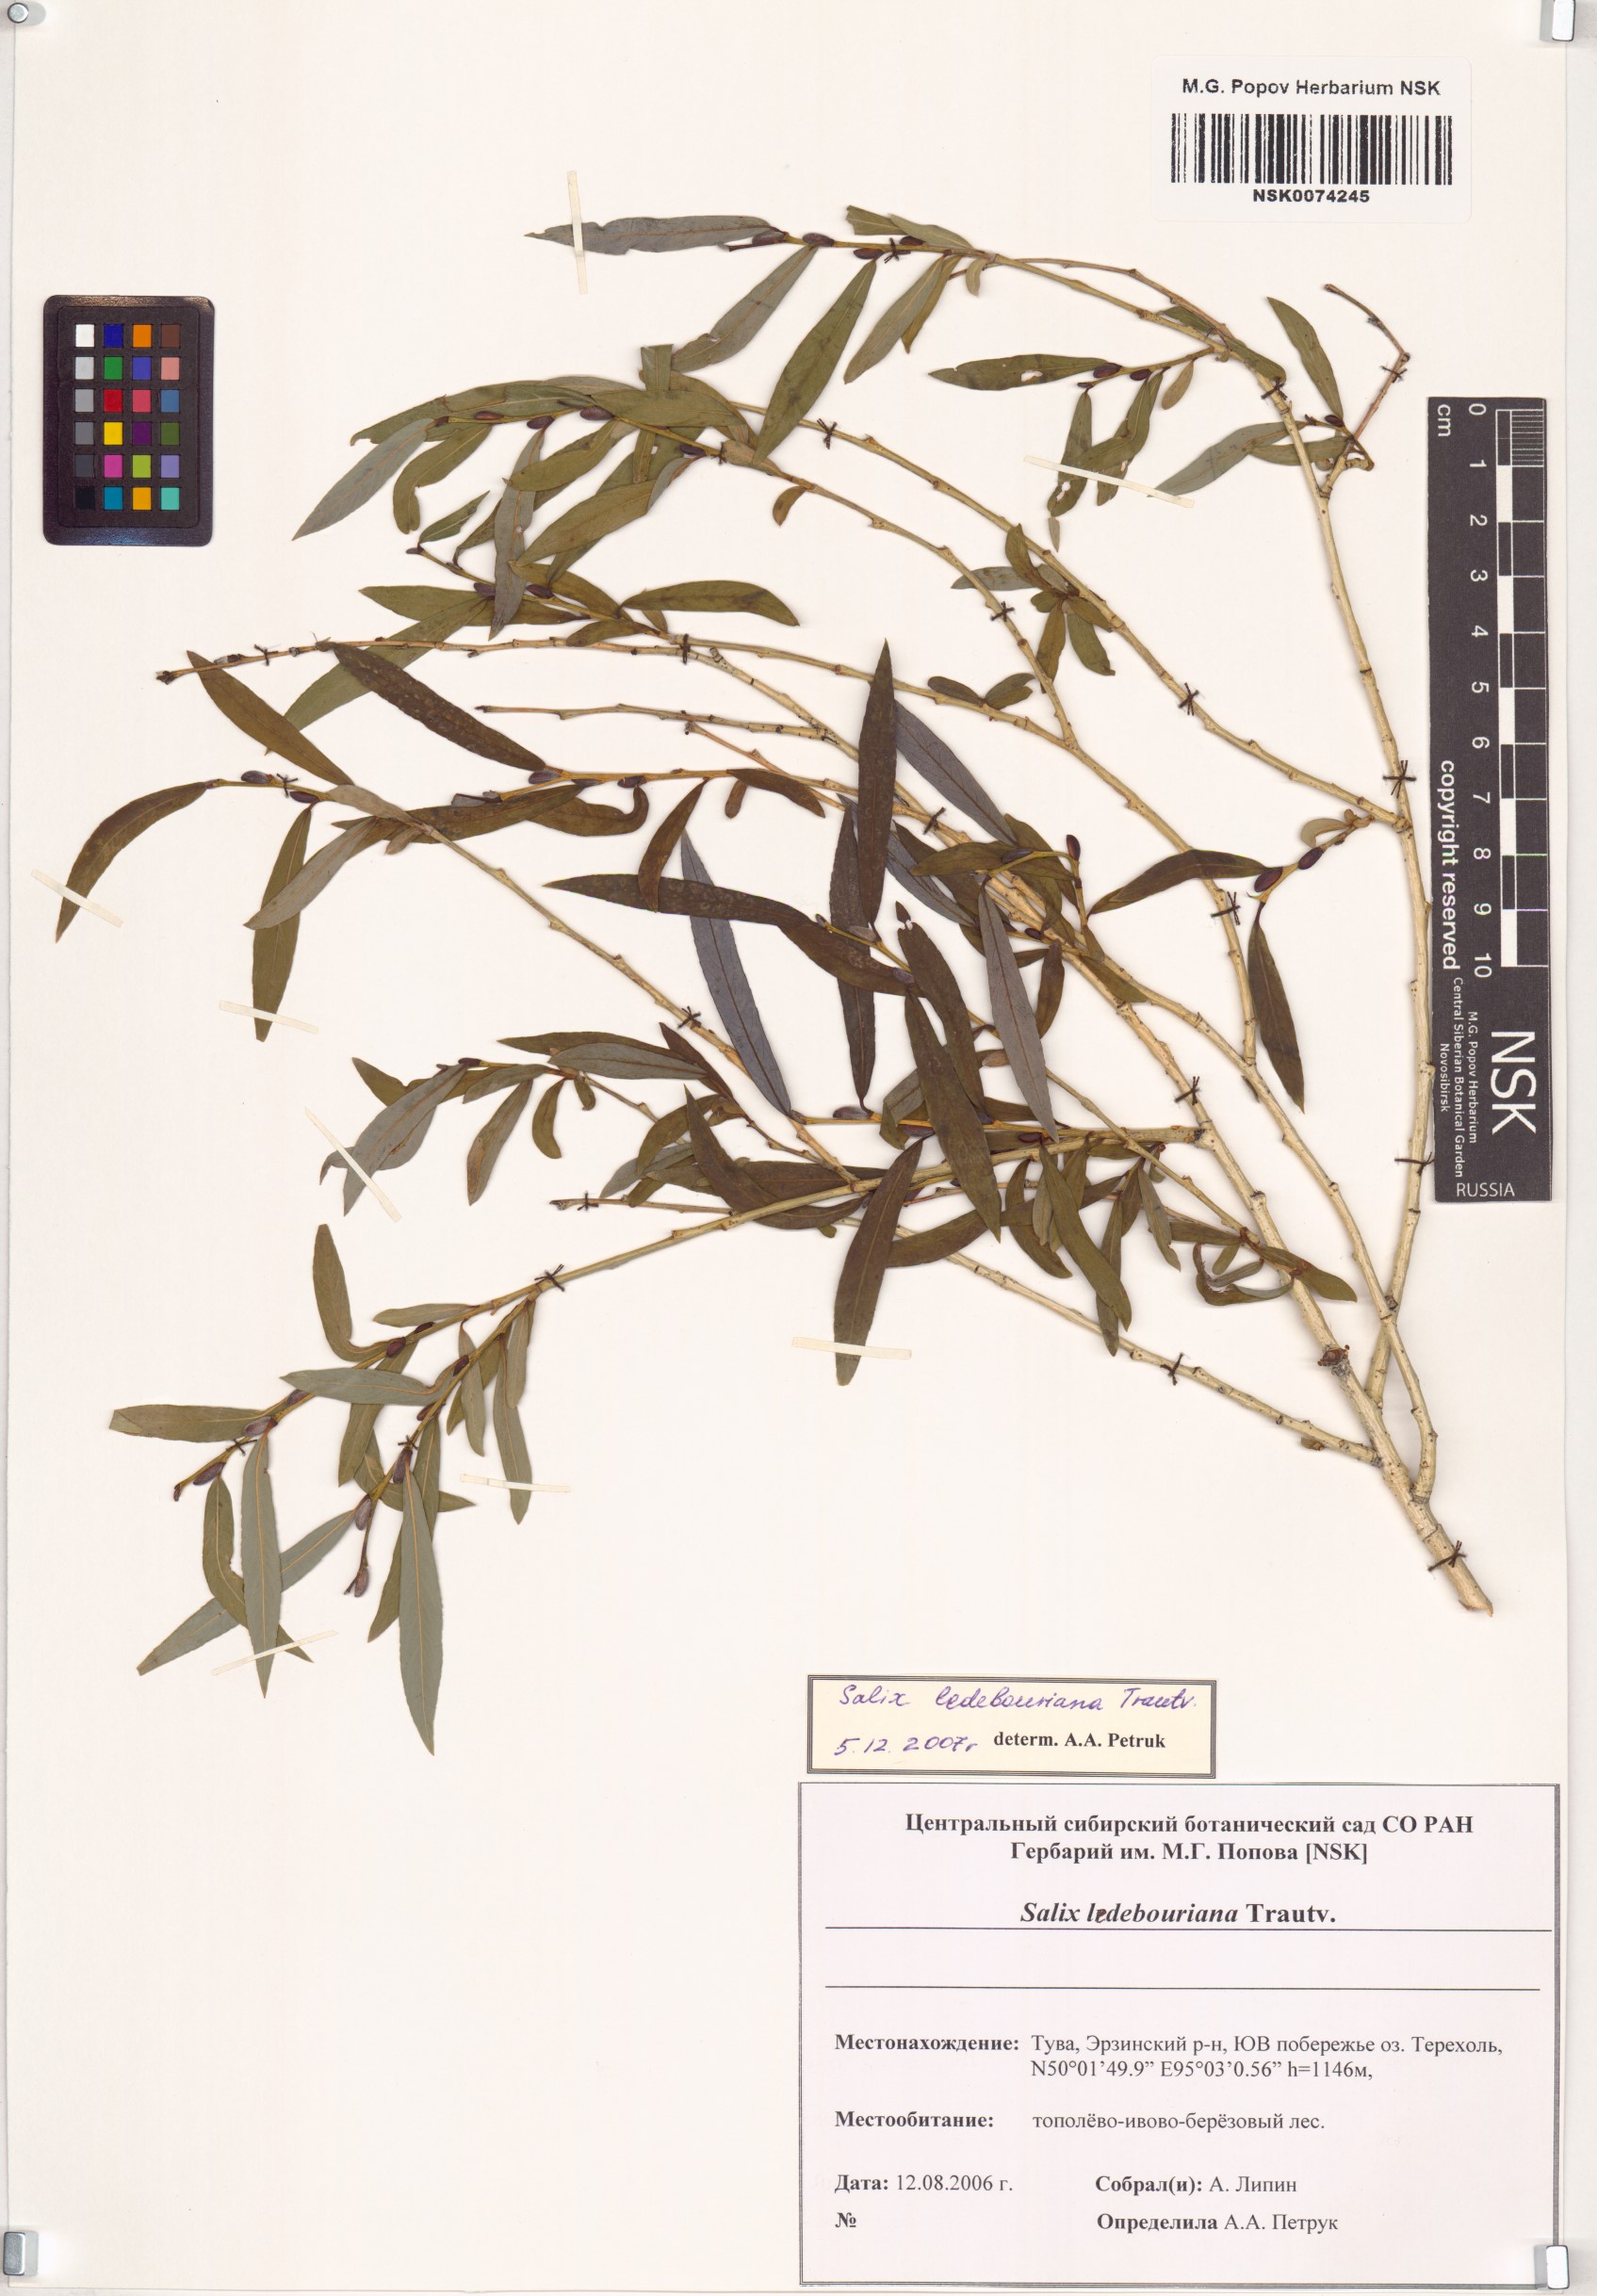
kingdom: Plantae
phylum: Tracheophyta
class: Magnoliopsida
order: Malpighiales
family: Salicaceae
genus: Salix
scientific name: Salix ledebouriana
